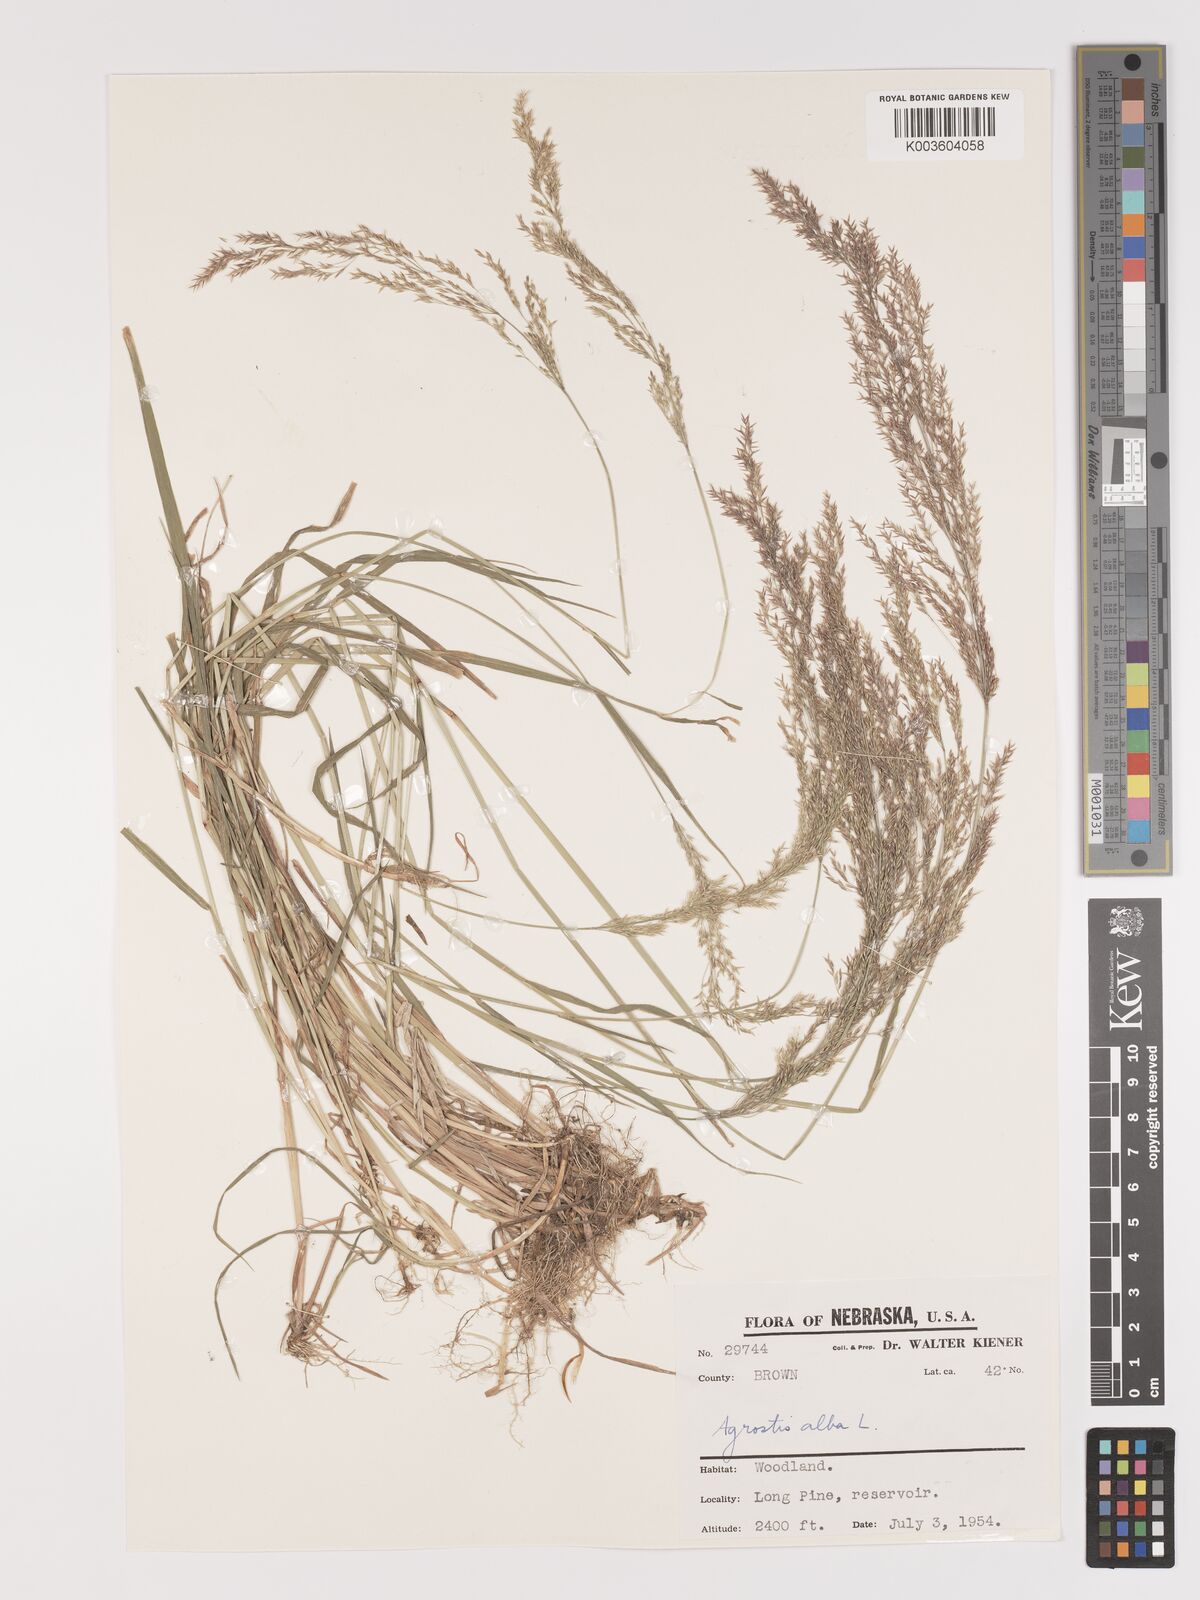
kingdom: Plantae
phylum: Tracheophyta
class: Liliopsida
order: Poales
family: Poaceae
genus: Agrostis
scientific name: Agrostis gigantea
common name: Black bent
